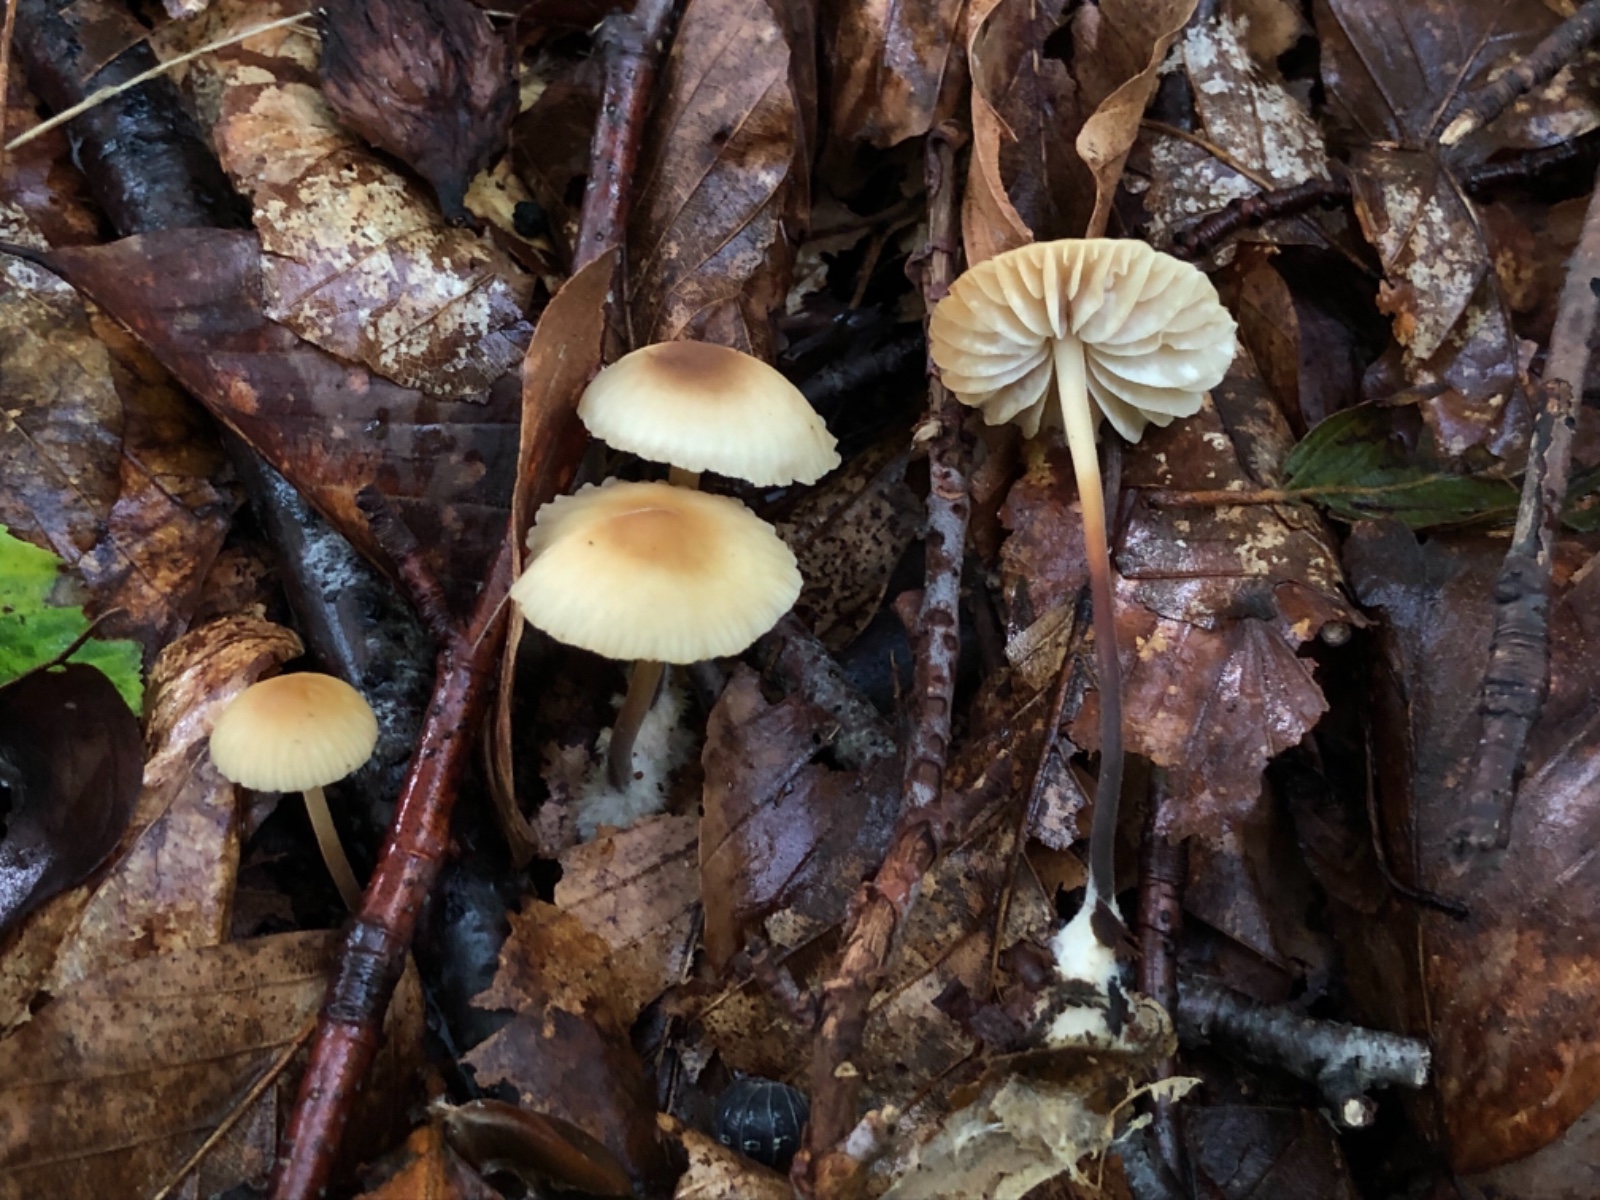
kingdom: Fungi
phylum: Basidiomycota
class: Agaricomycetes
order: Agaricales
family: Marasmiaceae
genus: Marasmius
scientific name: Marasmius torquescens
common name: filtfodet bruskhat
